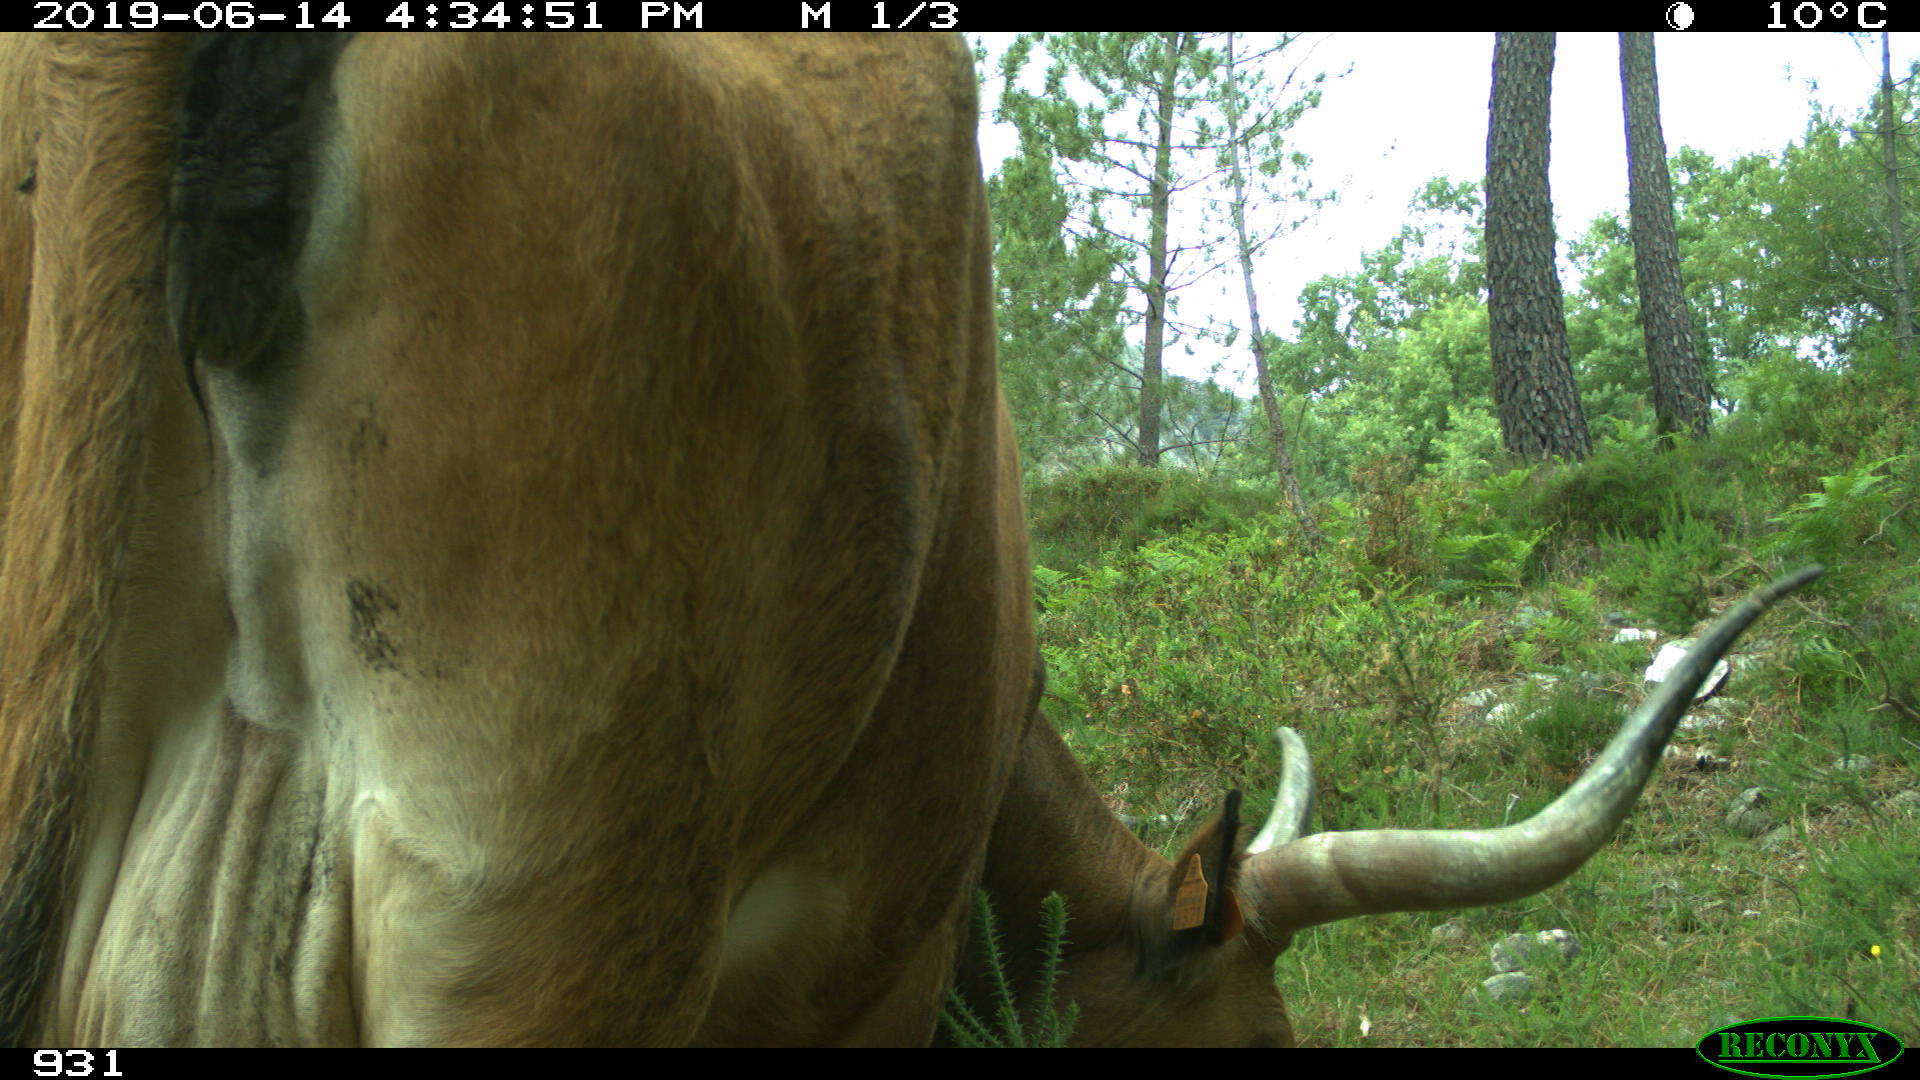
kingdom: Animalia
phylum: Chordata
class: Mammalia
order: Artiodactyla
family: Bovidae
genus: Bos
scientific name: Bos taurus
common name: Domesticated cattle
